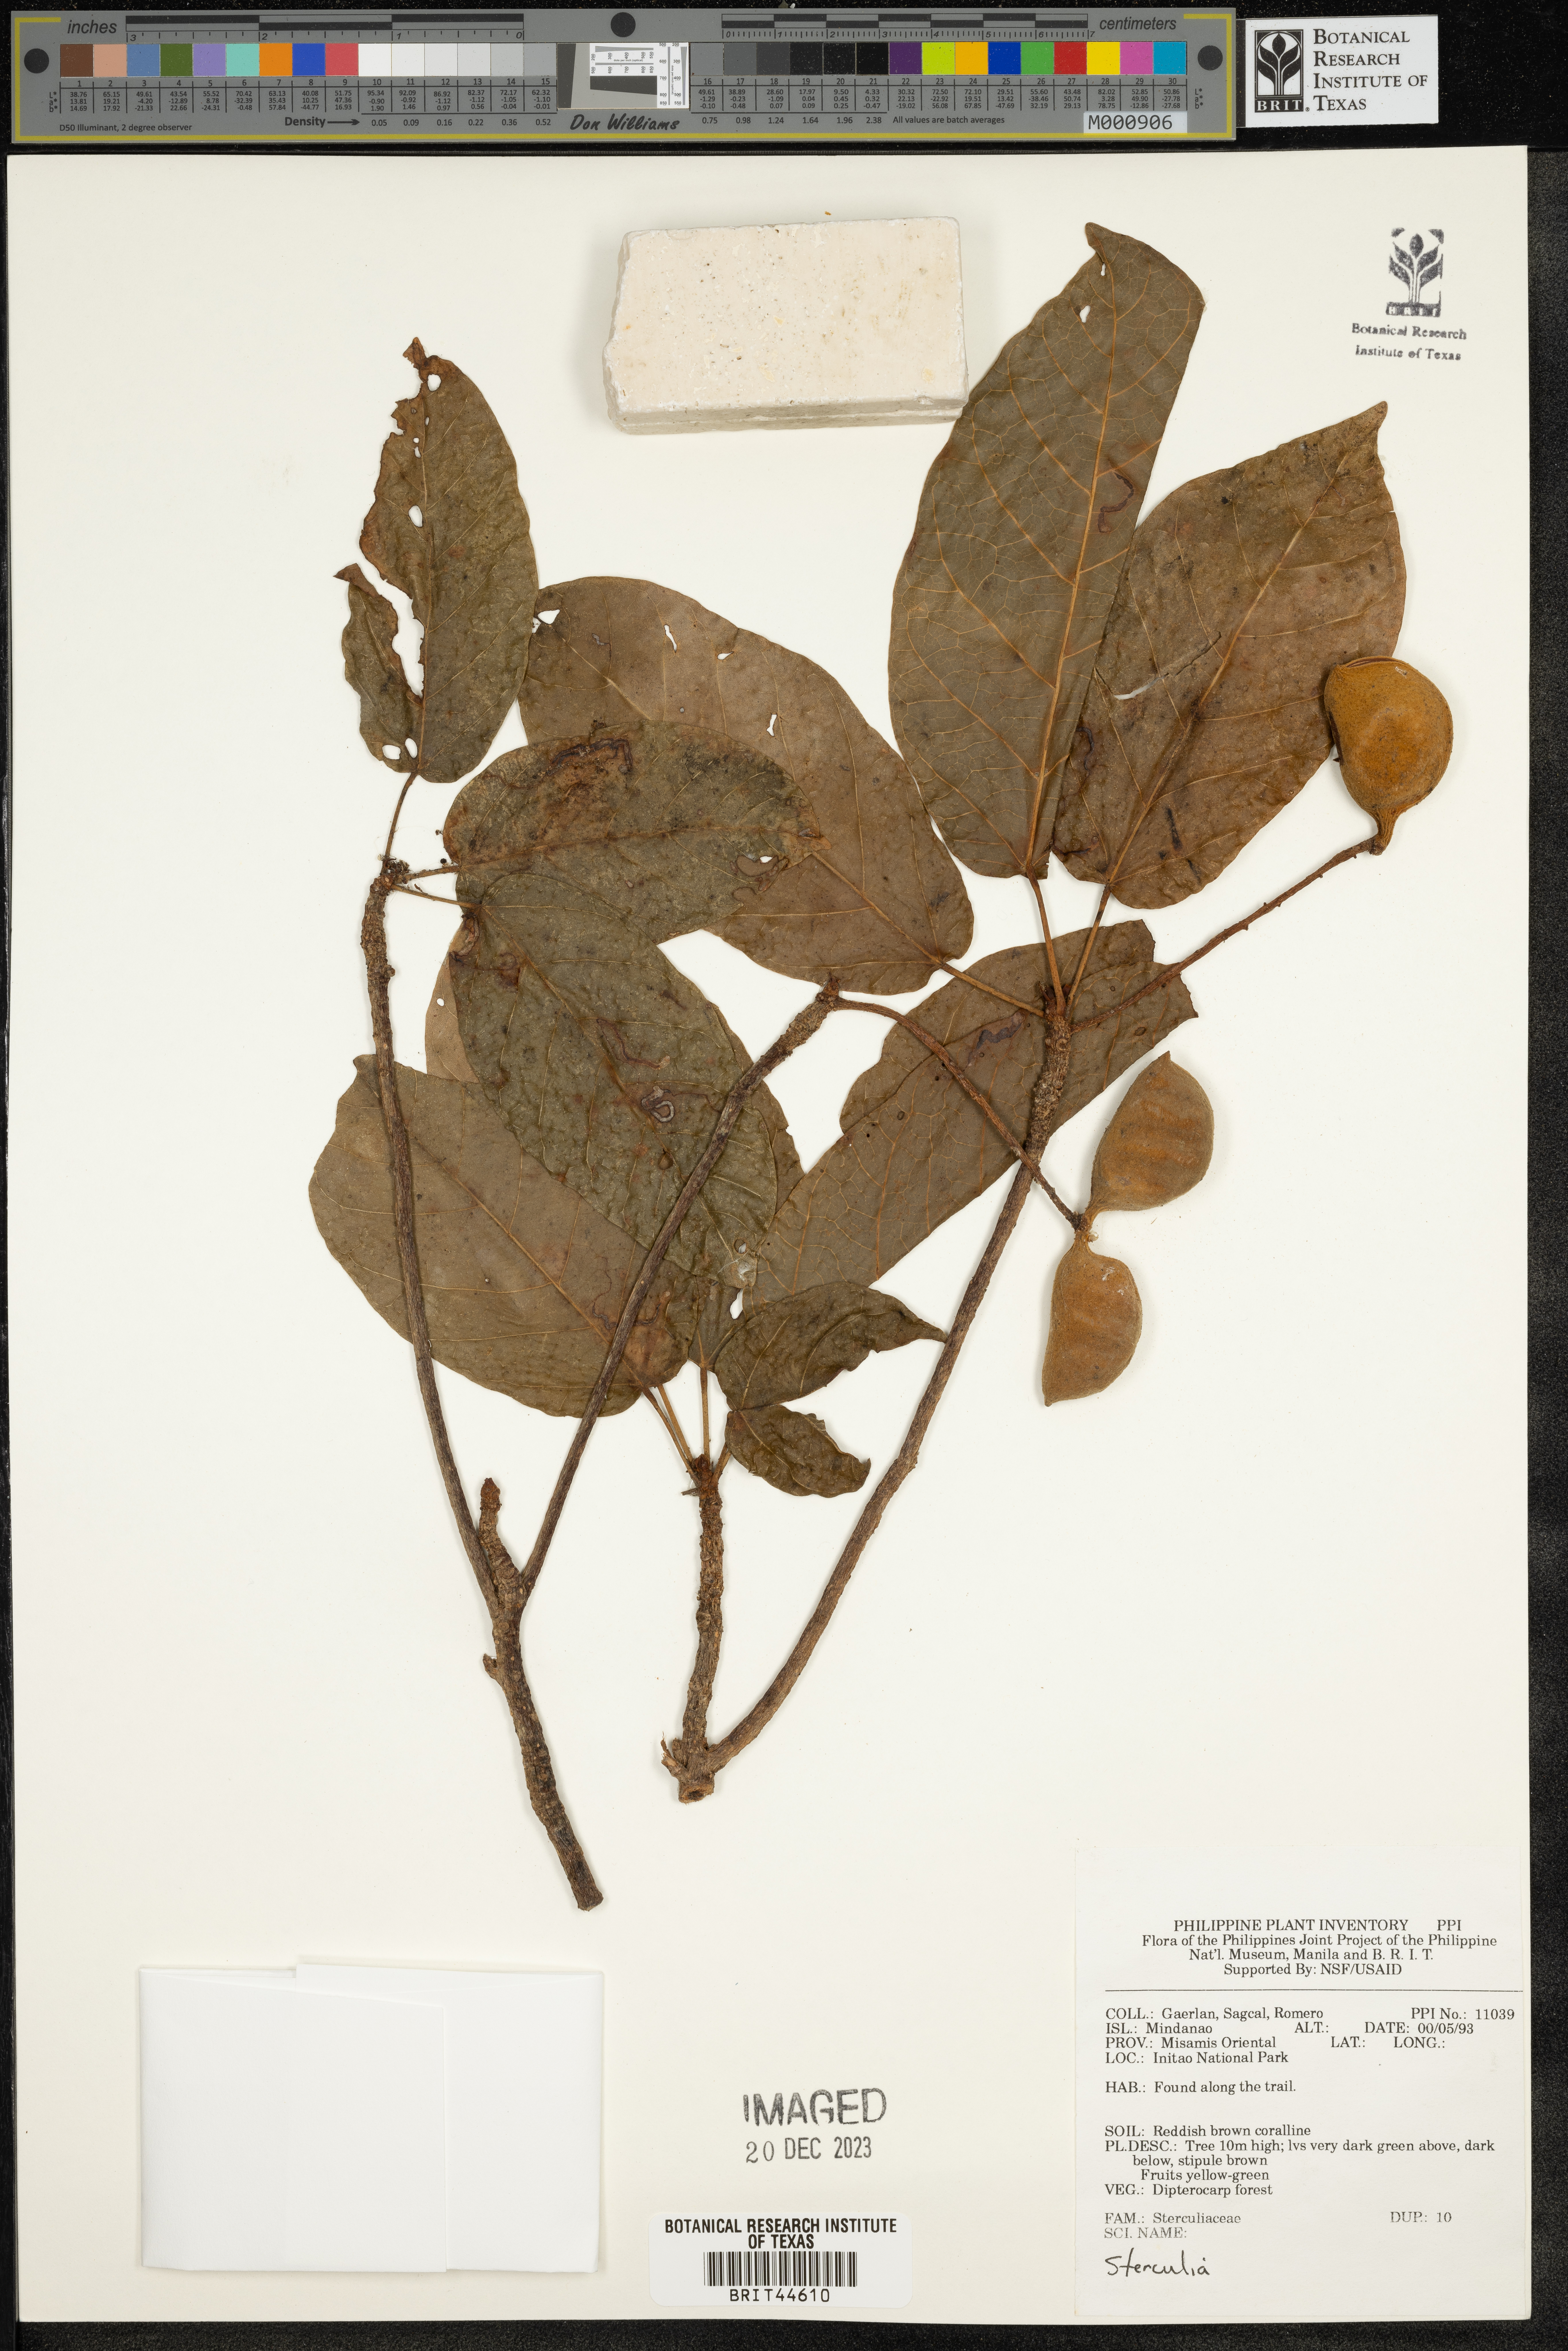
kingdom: Plantae
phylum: Tracheophyta
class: Magnoliopsida
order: Malvales
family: Malvaceae
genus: Sterculia
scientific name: Sterculia
